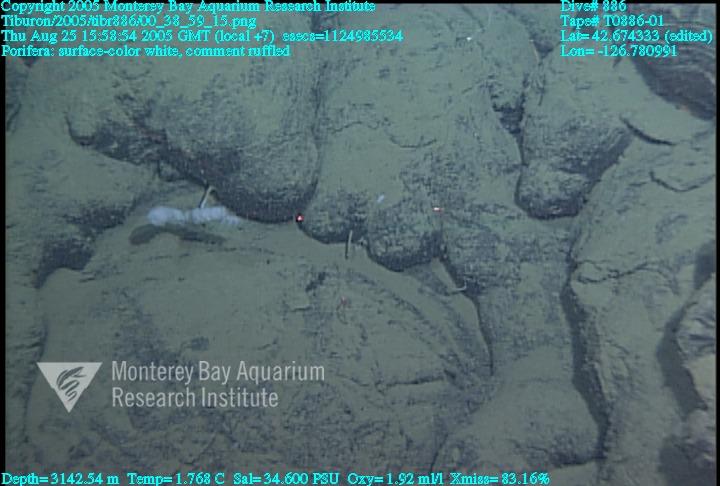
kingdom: Animalia
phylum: Porifera
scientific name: Porifera
